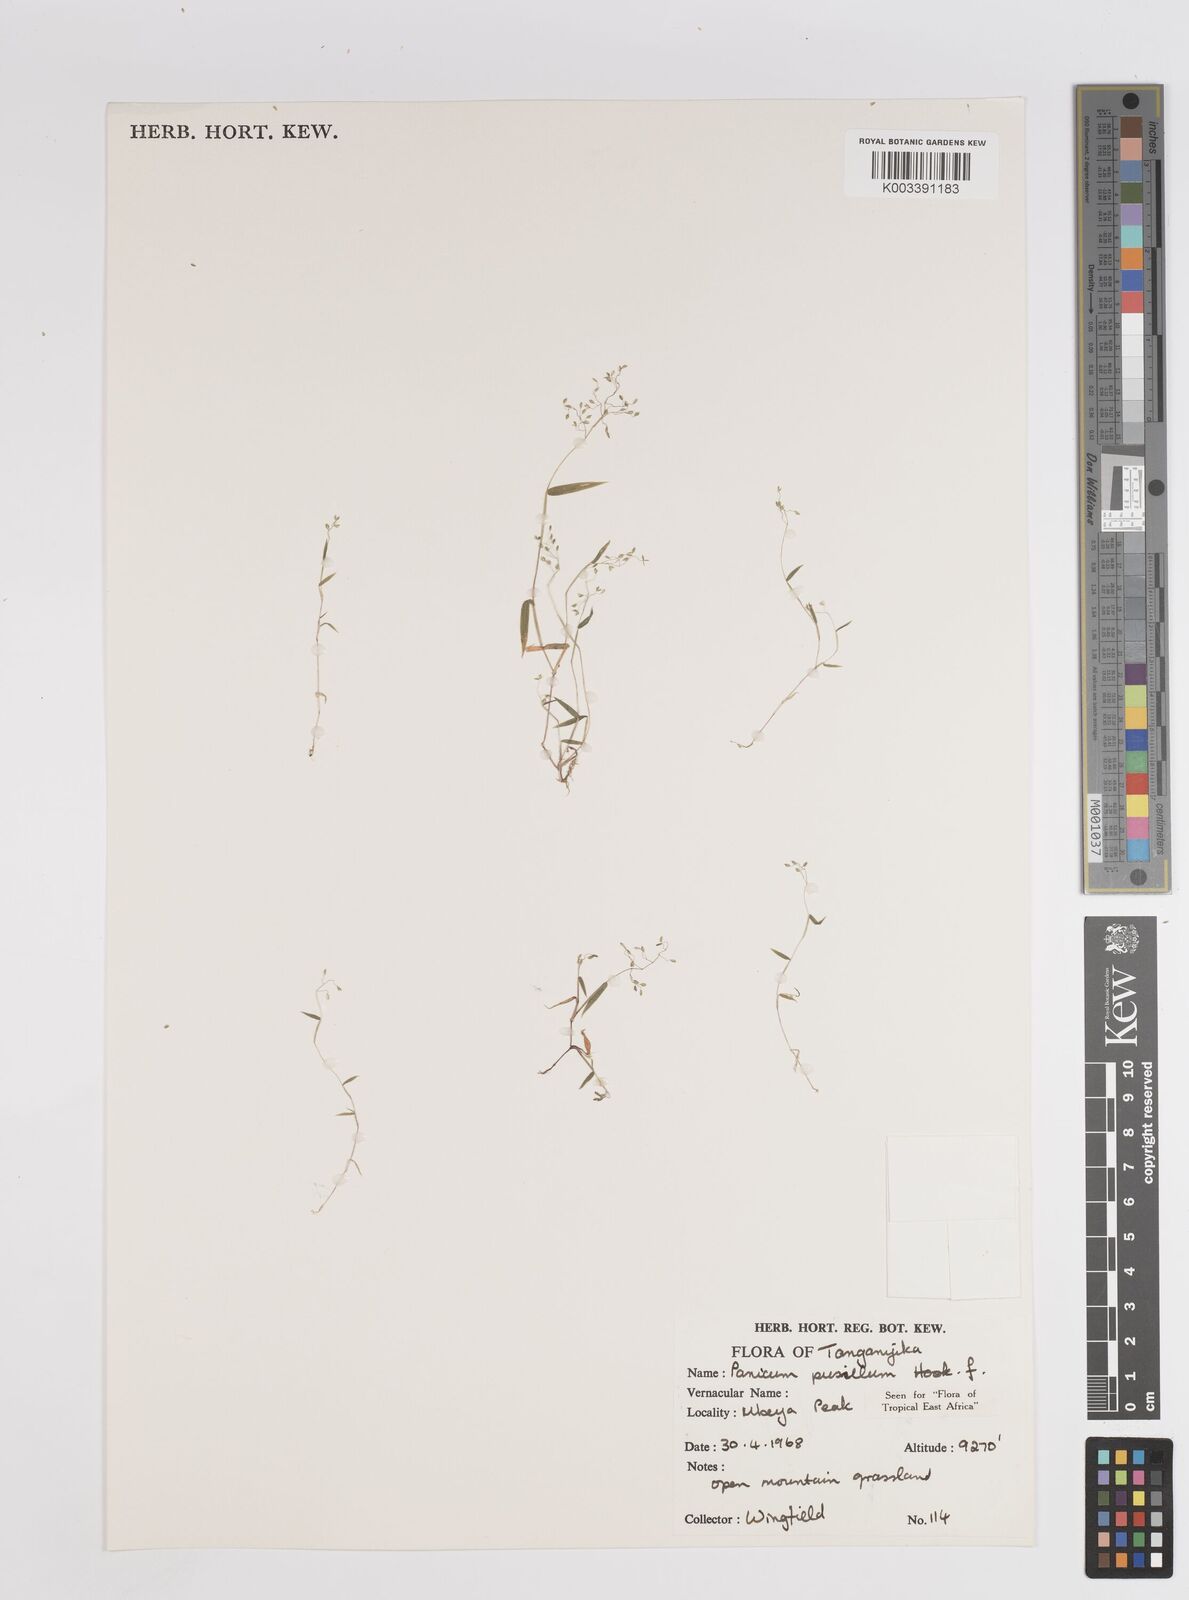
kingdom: Plantae
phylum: Tracheophyta
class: Liliopsida
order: Poales
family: Poaceae
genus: Panicum
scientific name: Panicum pusillum
